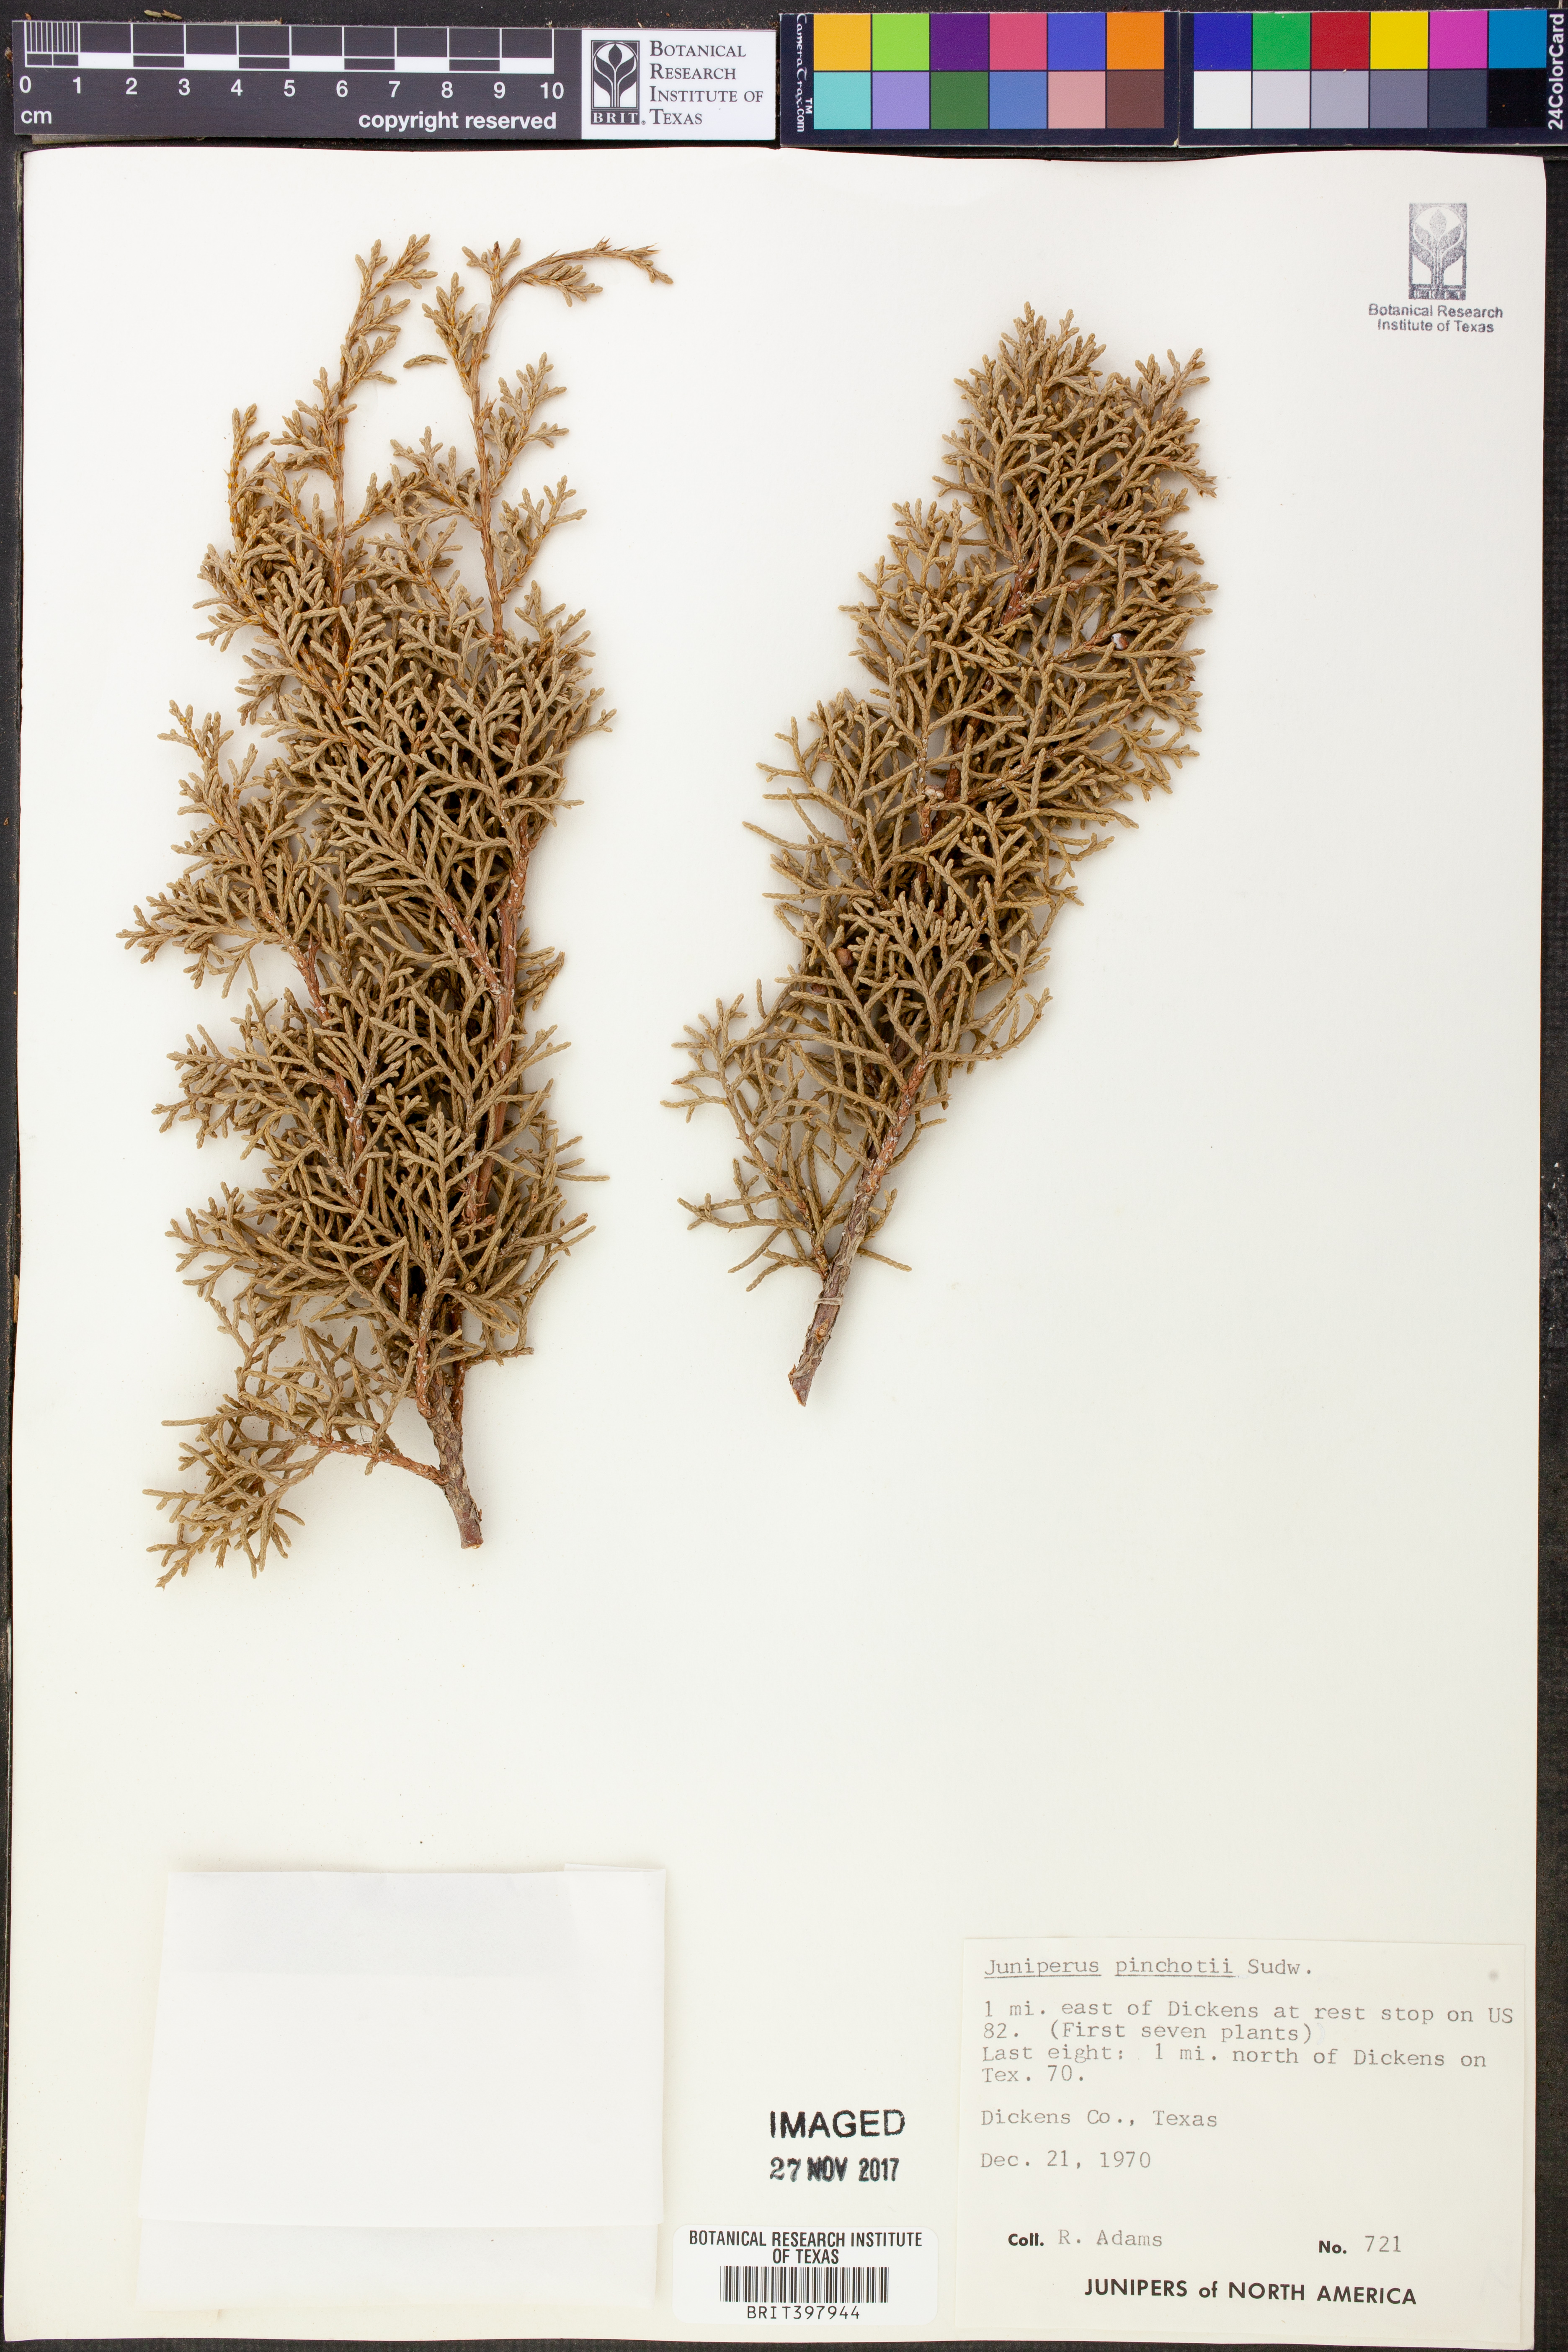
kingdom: Plantae
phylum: Tracheophyta
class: Pinopsida
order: Pinales
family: Cupressaceae
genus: Juniperus
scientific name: Juniperus pinchotii
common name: Pinchot juniper
